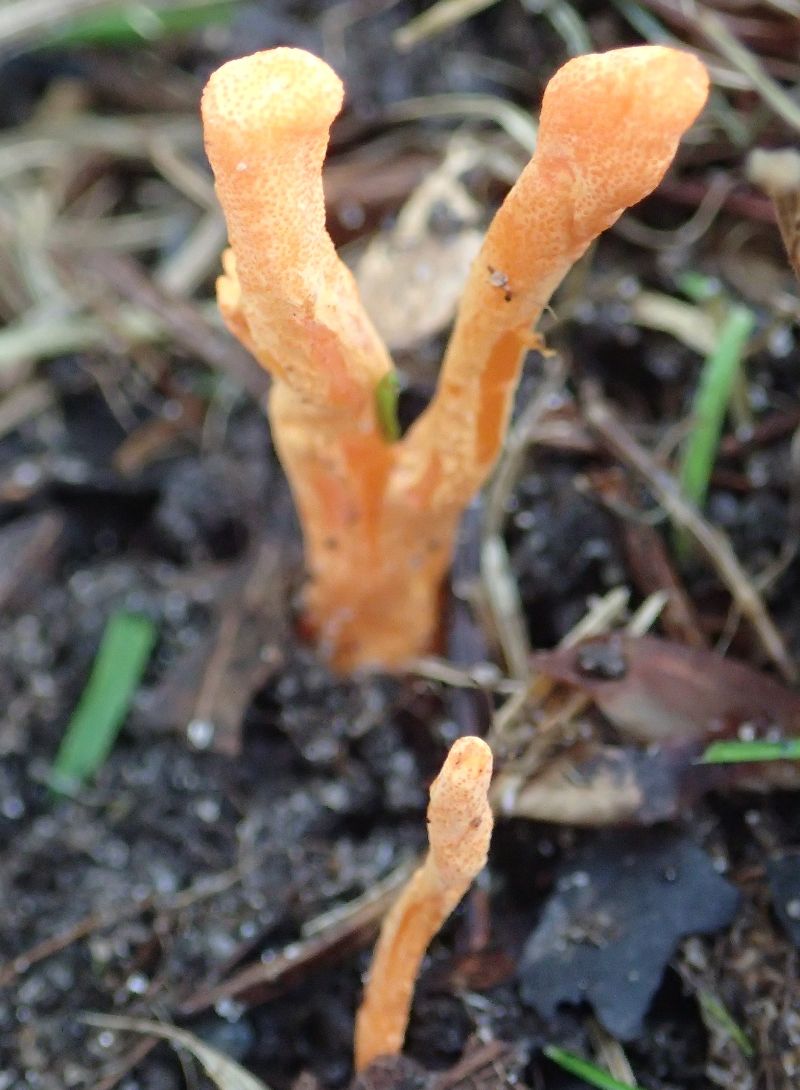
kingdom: Fungi
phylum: Ascomycota
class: Sordariomycetes
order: Hypocreales
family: Cordycipitaceae
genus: Cordyceps
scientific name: Cordyceps militaris
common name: puppe-snyltekølle
